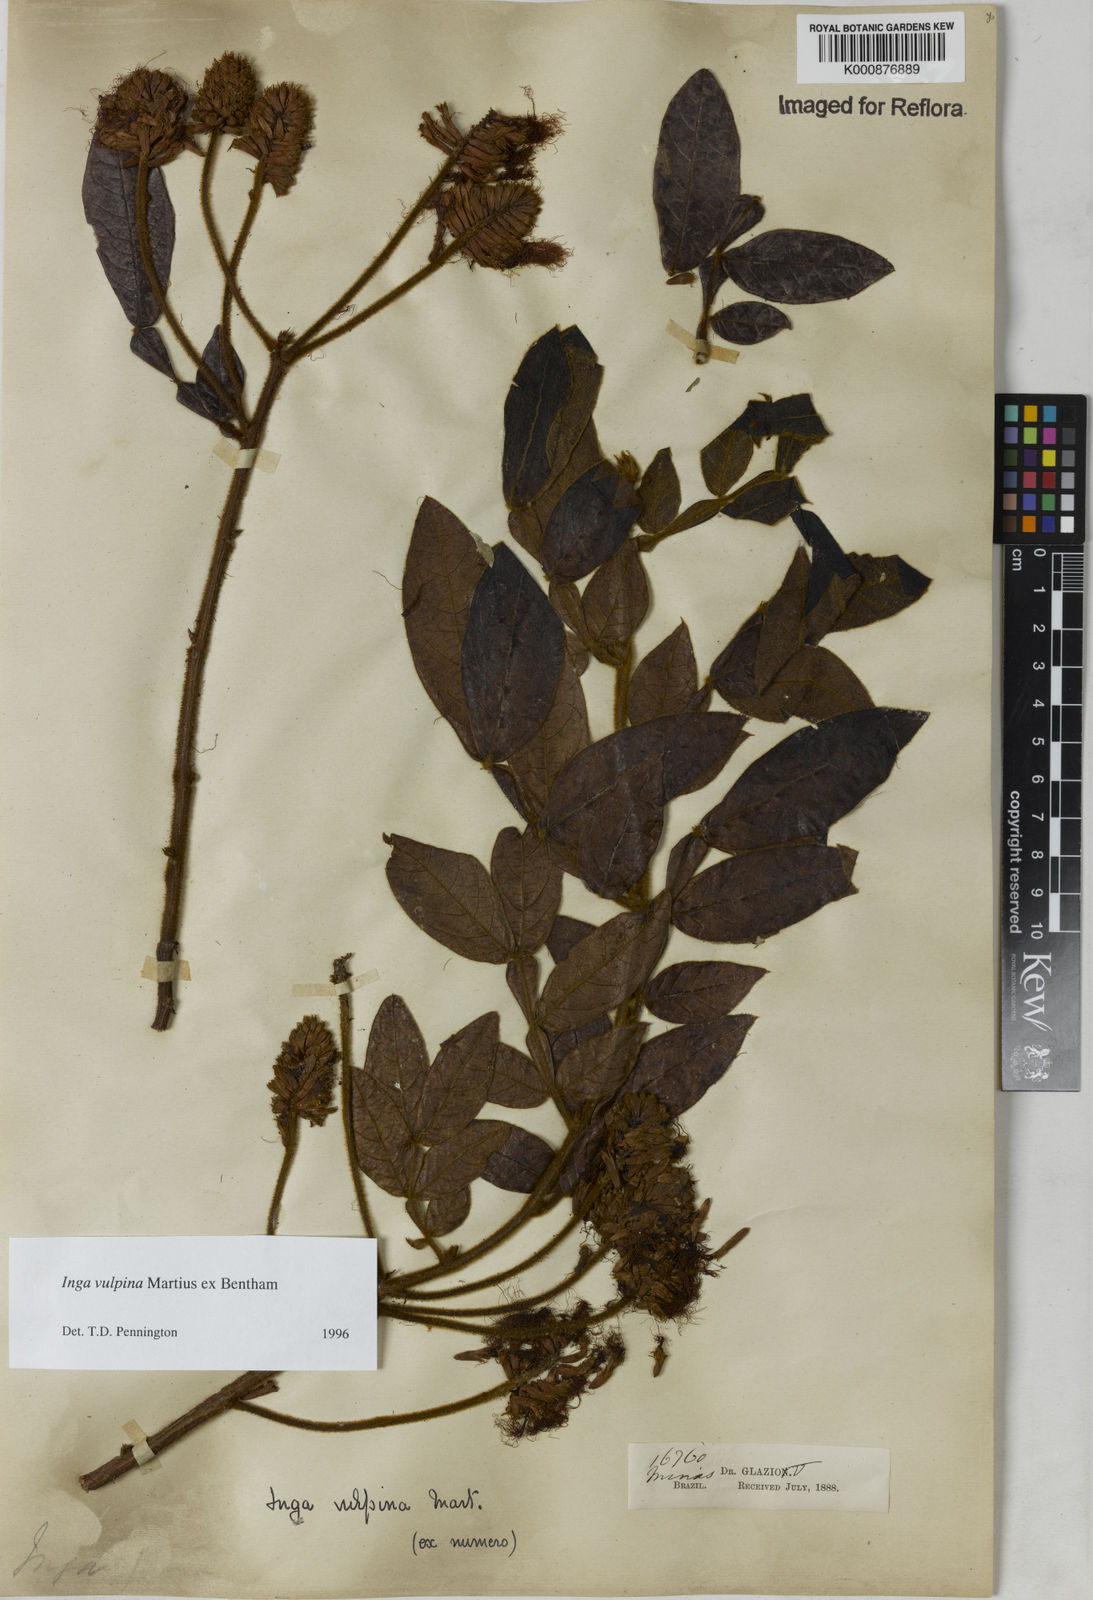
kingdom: Plantae
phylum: Tracheophyta
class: Magnoliopsida
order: Fabales
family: Fabaceae
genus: Inga
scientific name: Inga vulpina
